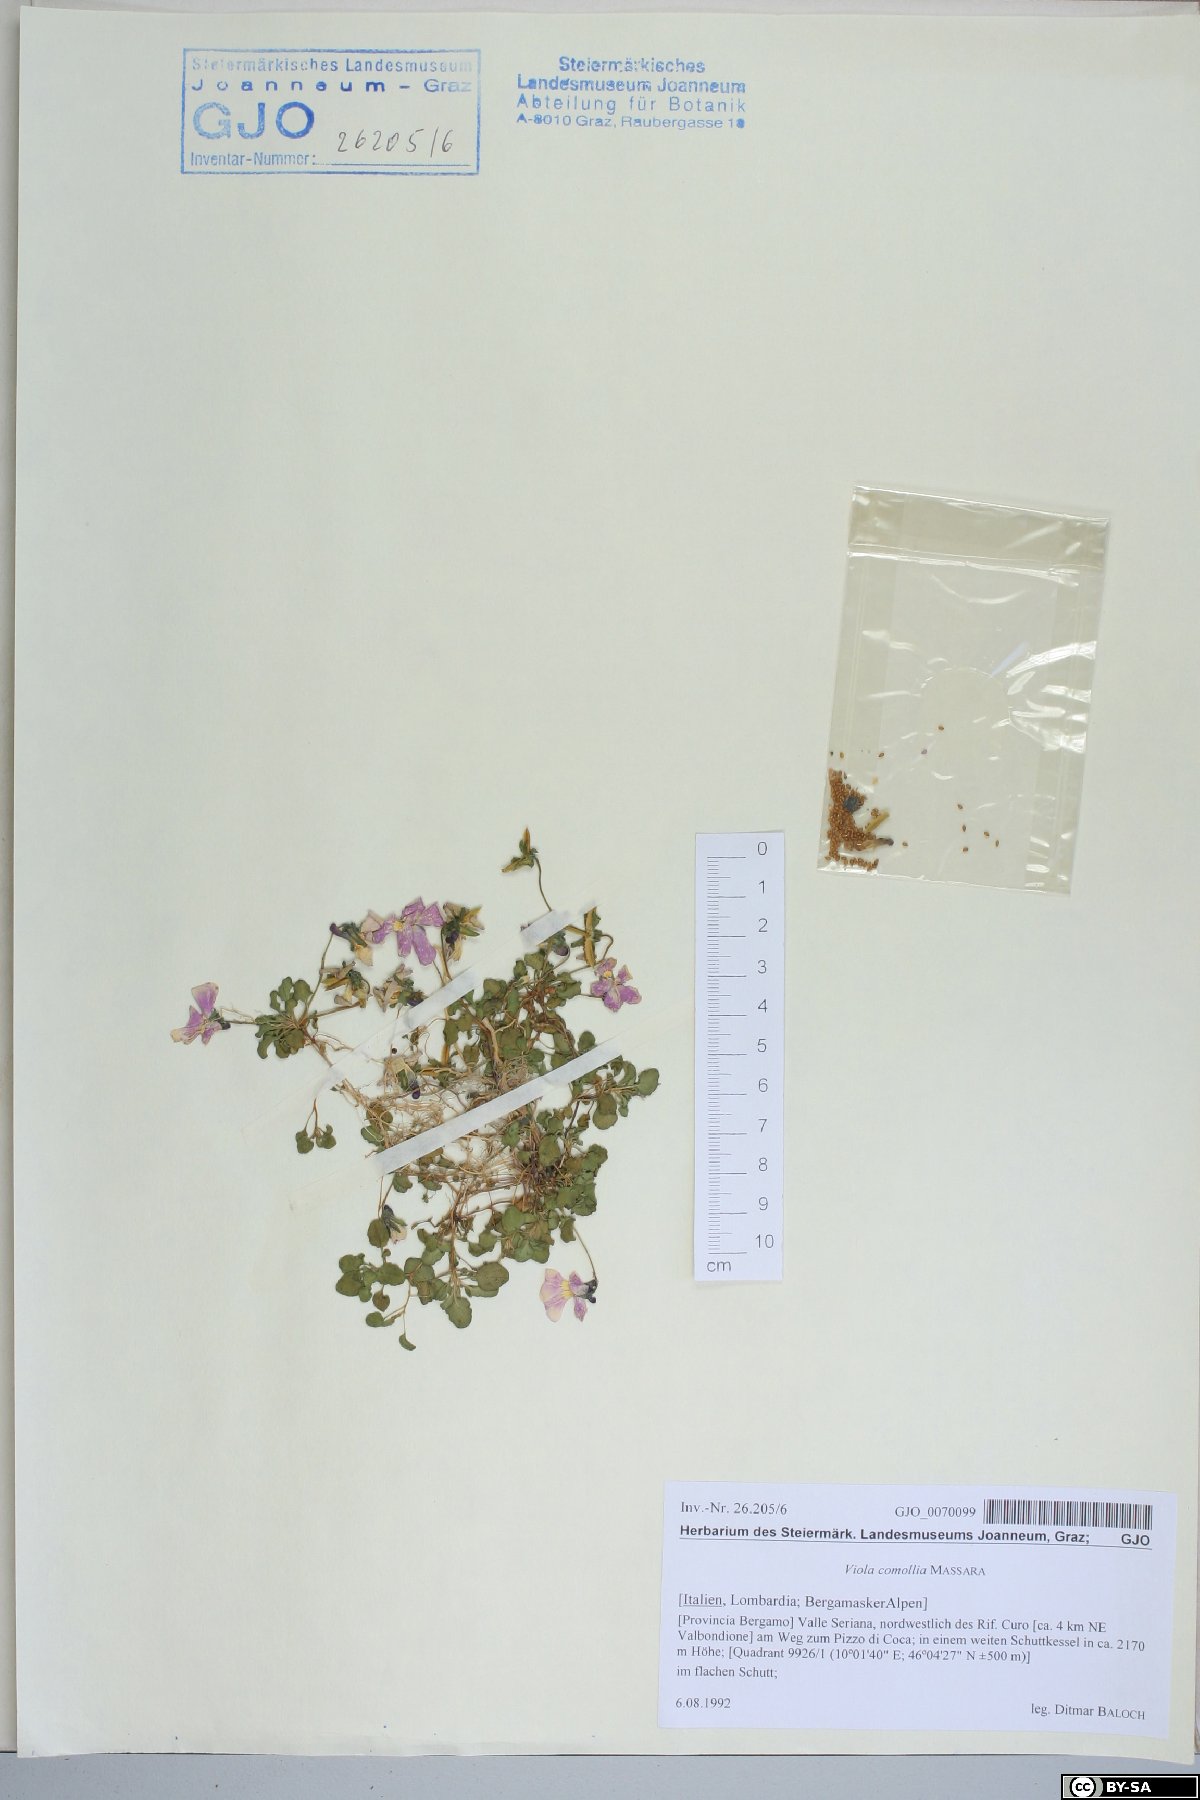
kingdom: Plantae
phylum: Tracheophyta
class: Magnoliopsida
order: Malpighiales
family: Violaceae
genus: Viola
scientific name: Viola comollia
